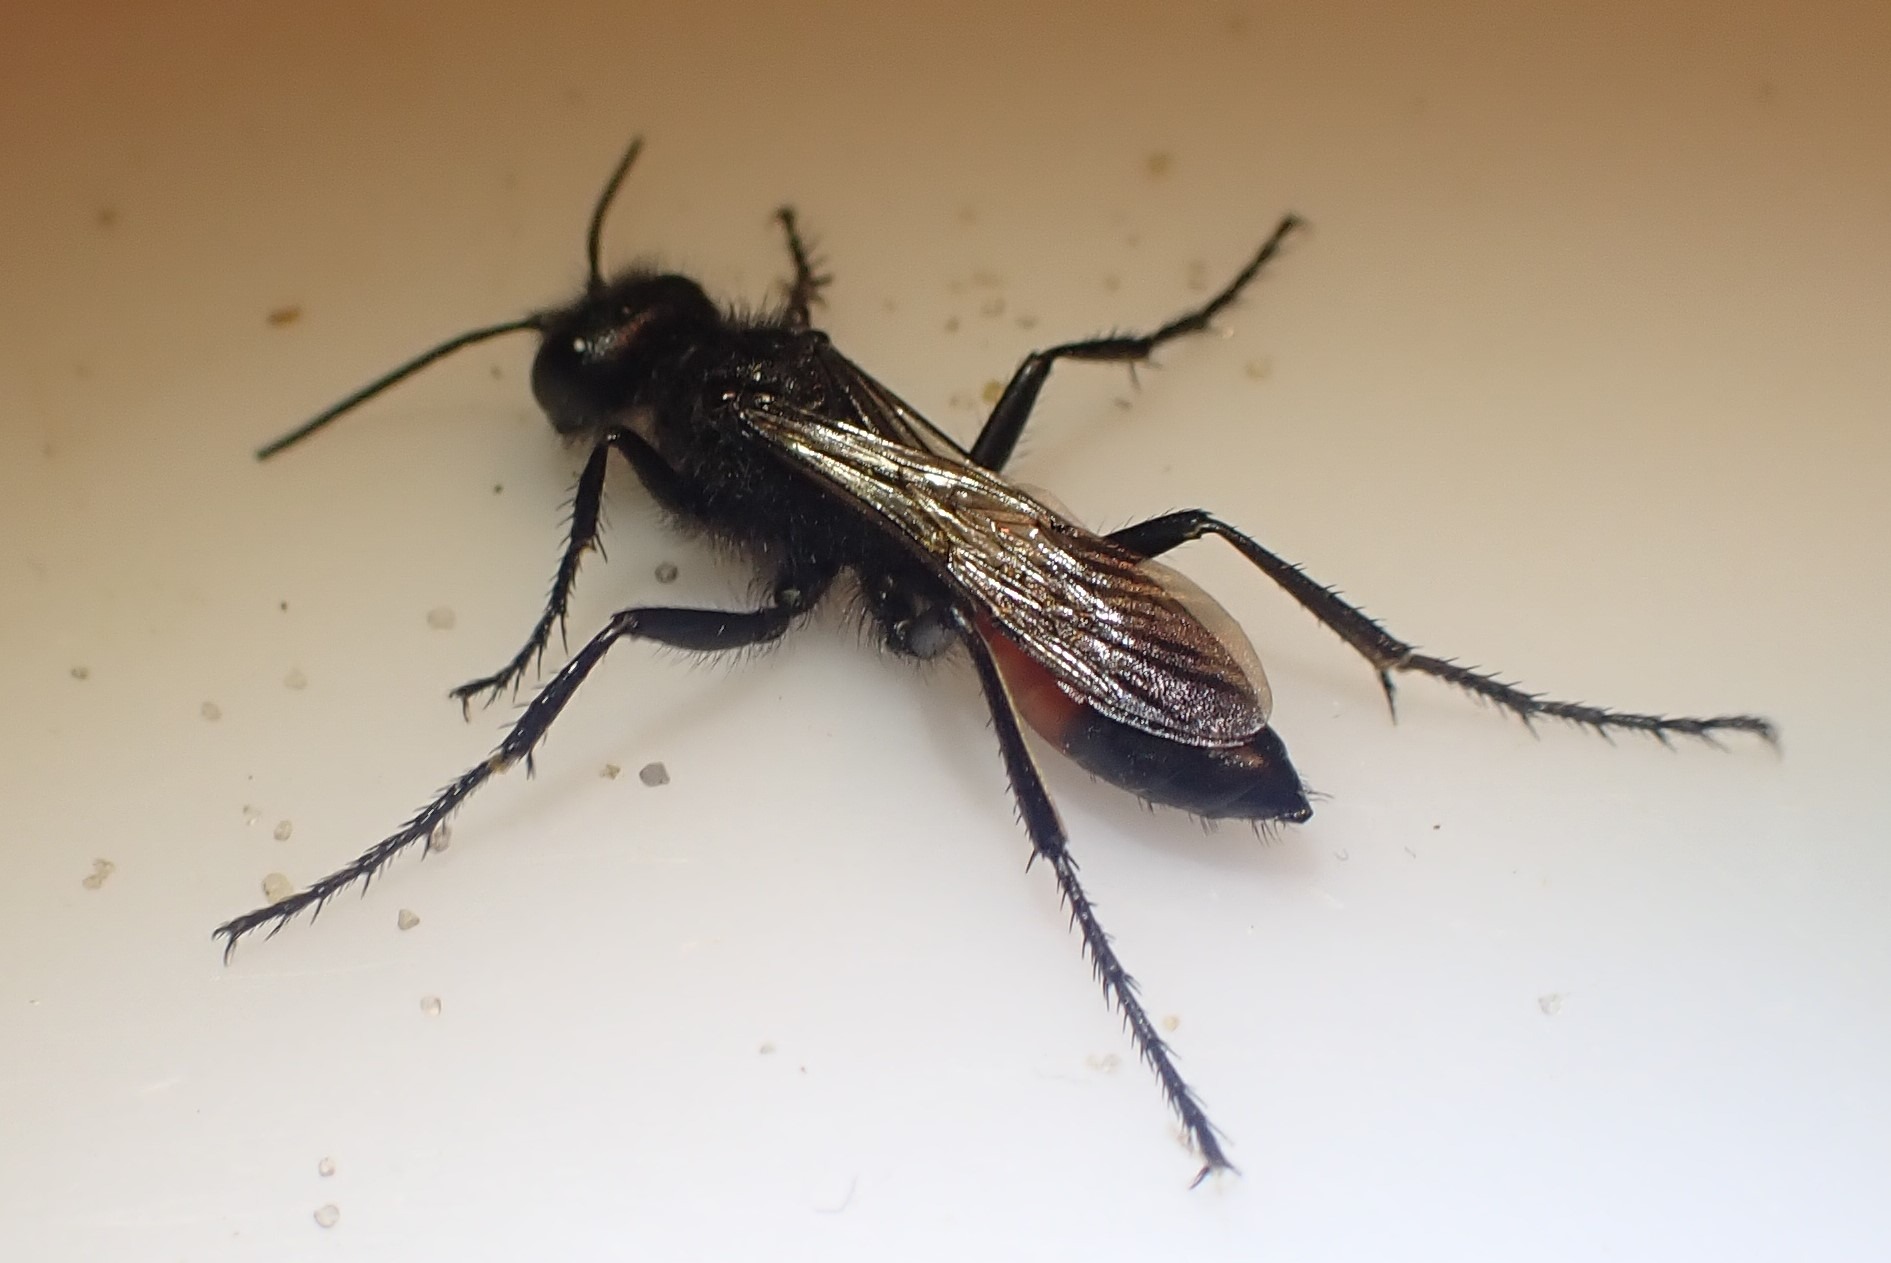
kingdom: Animalia
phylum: Arthropoda
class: Insecta
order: Hymenoptera
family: Sphecidae
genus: Podalonia
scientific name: Podalonia hirsuta
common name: Stor sandhveps
